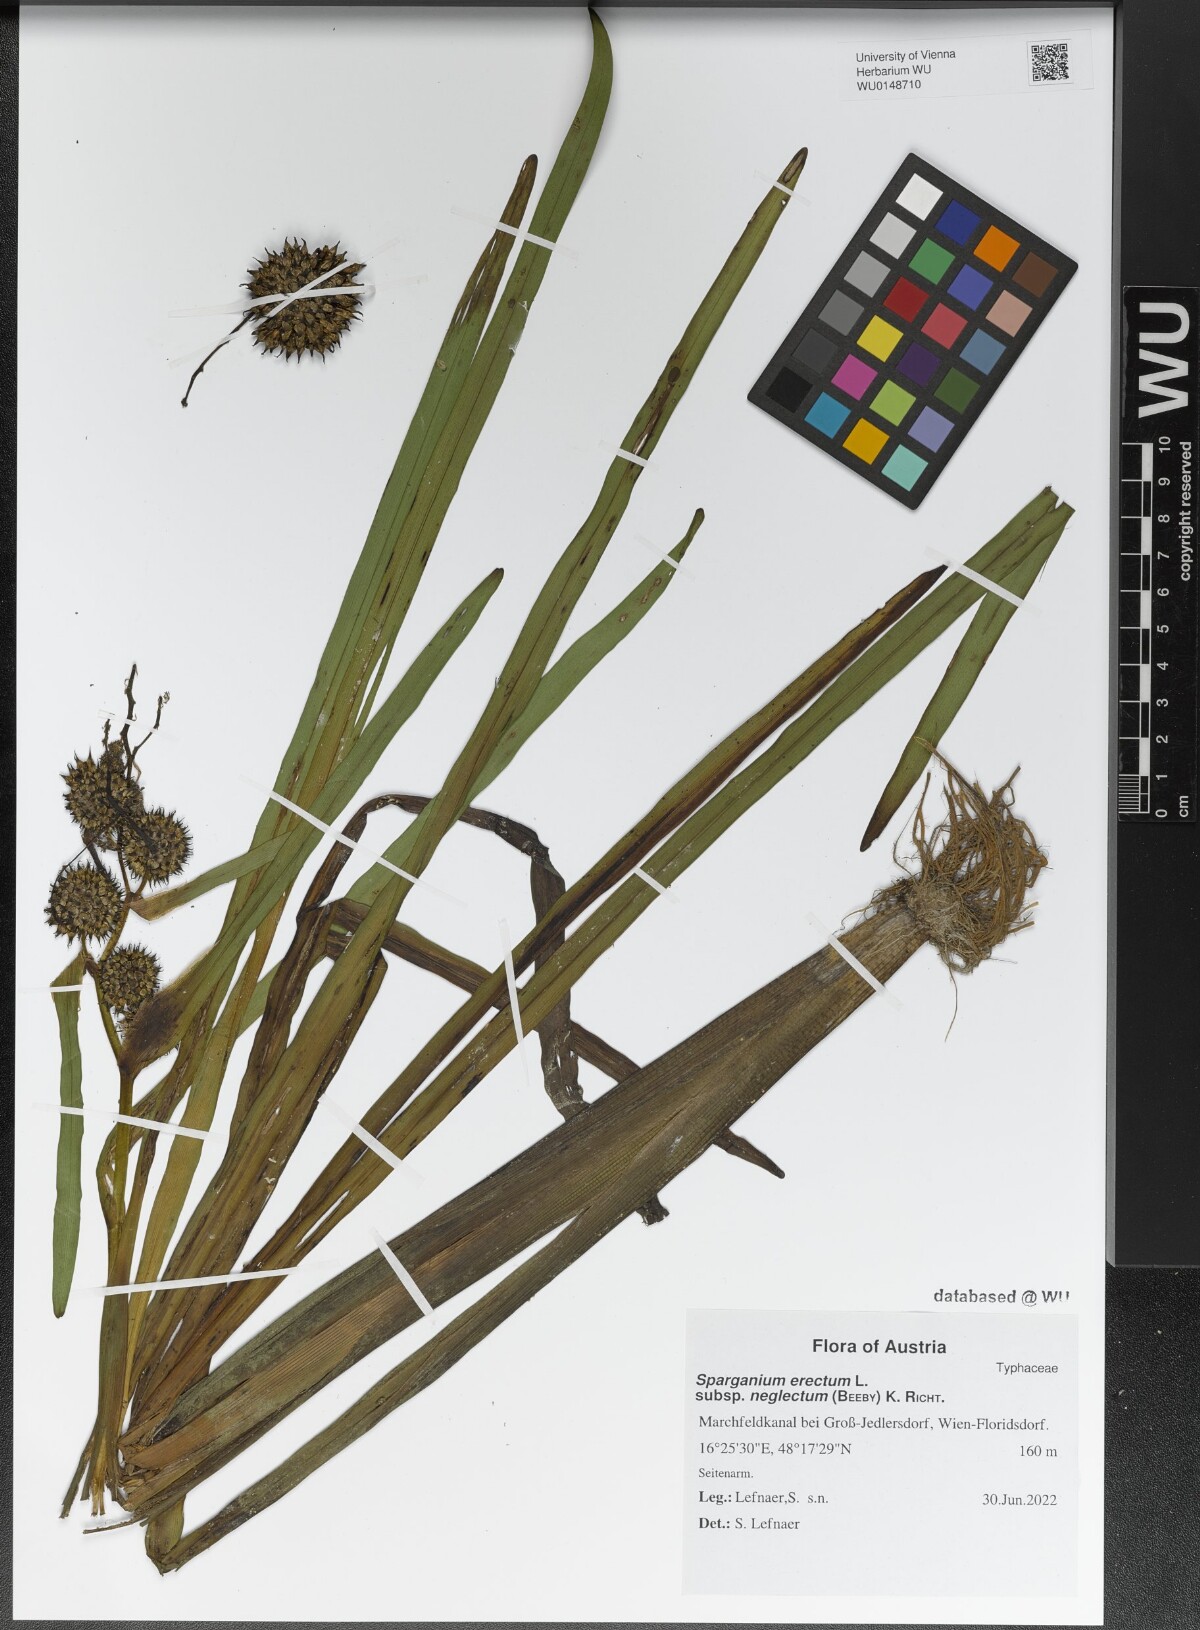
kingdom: Plantae
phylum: Tracheophyta
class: Liliopsida
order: Poales
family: Typhaceae
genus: Sparganium
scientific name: Sparganium erectum
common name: Branched bur-reed
